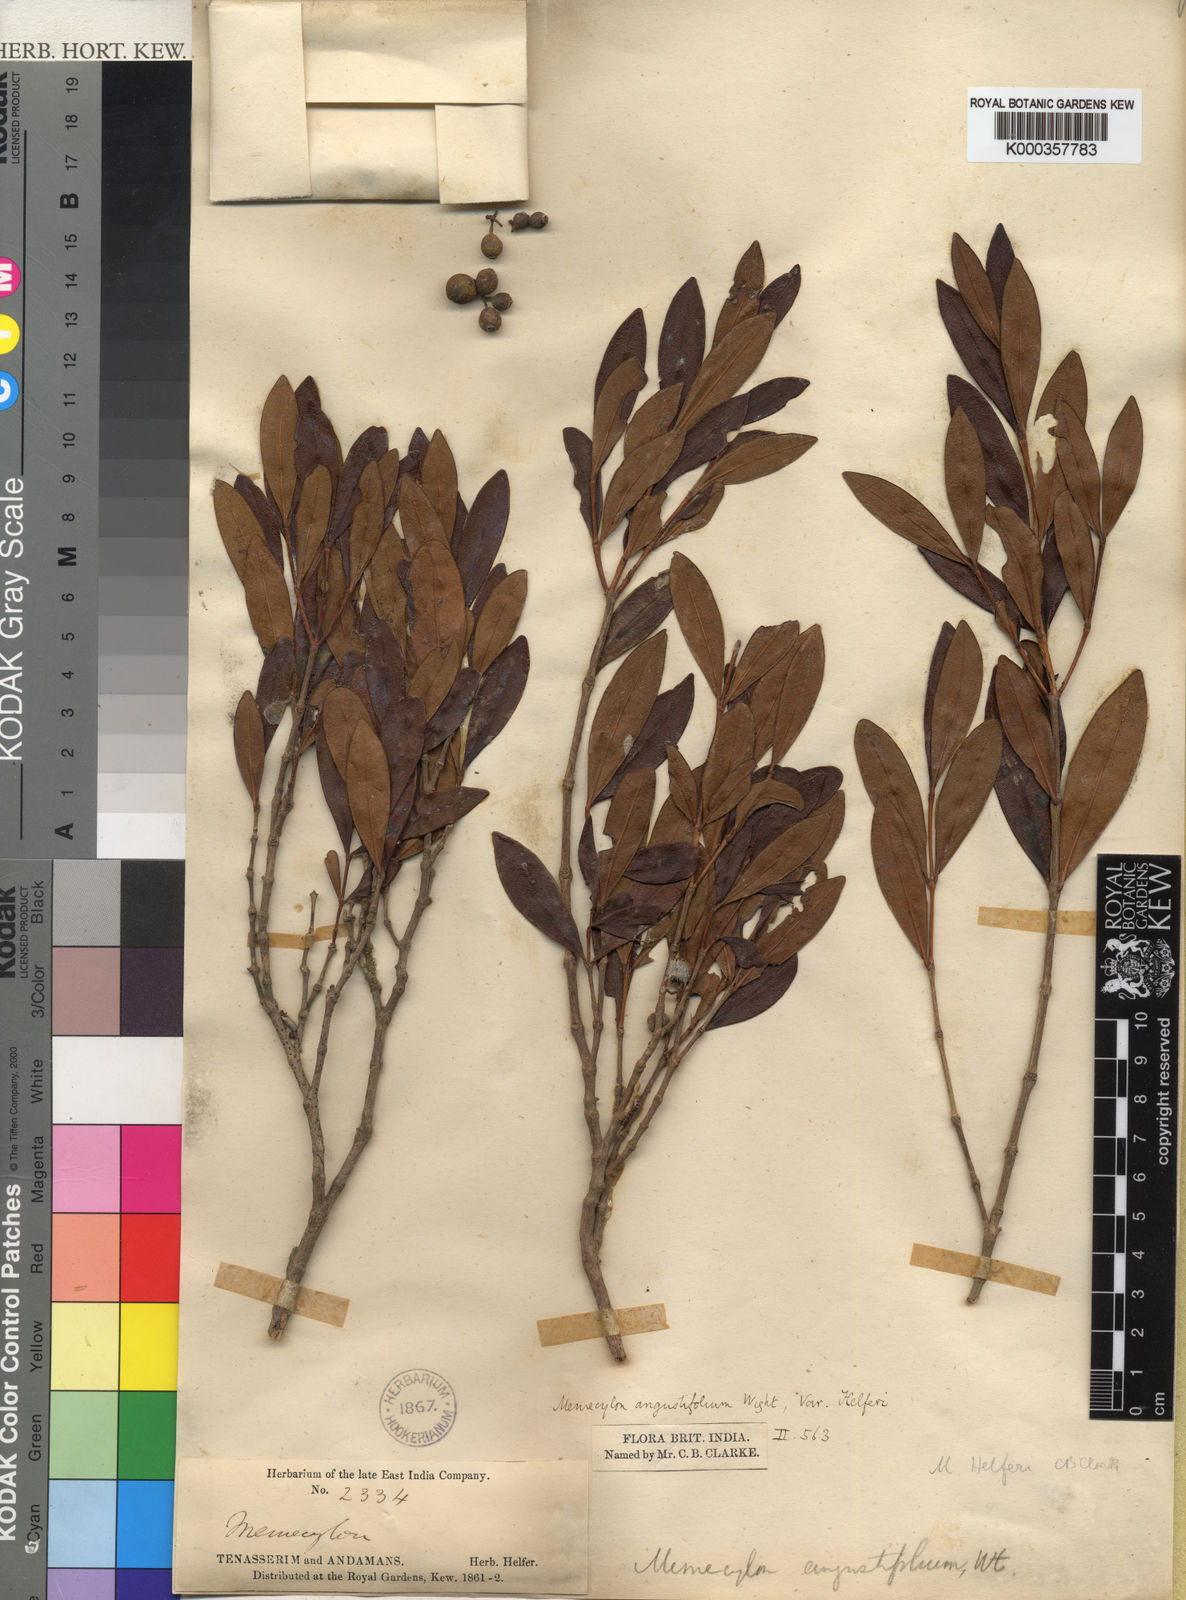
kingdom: Plantae
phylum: Tracheophyta
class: Magnoliopsida
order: Myrtales
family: Melastomataceae
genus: Memecylon
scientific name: Memecylon
